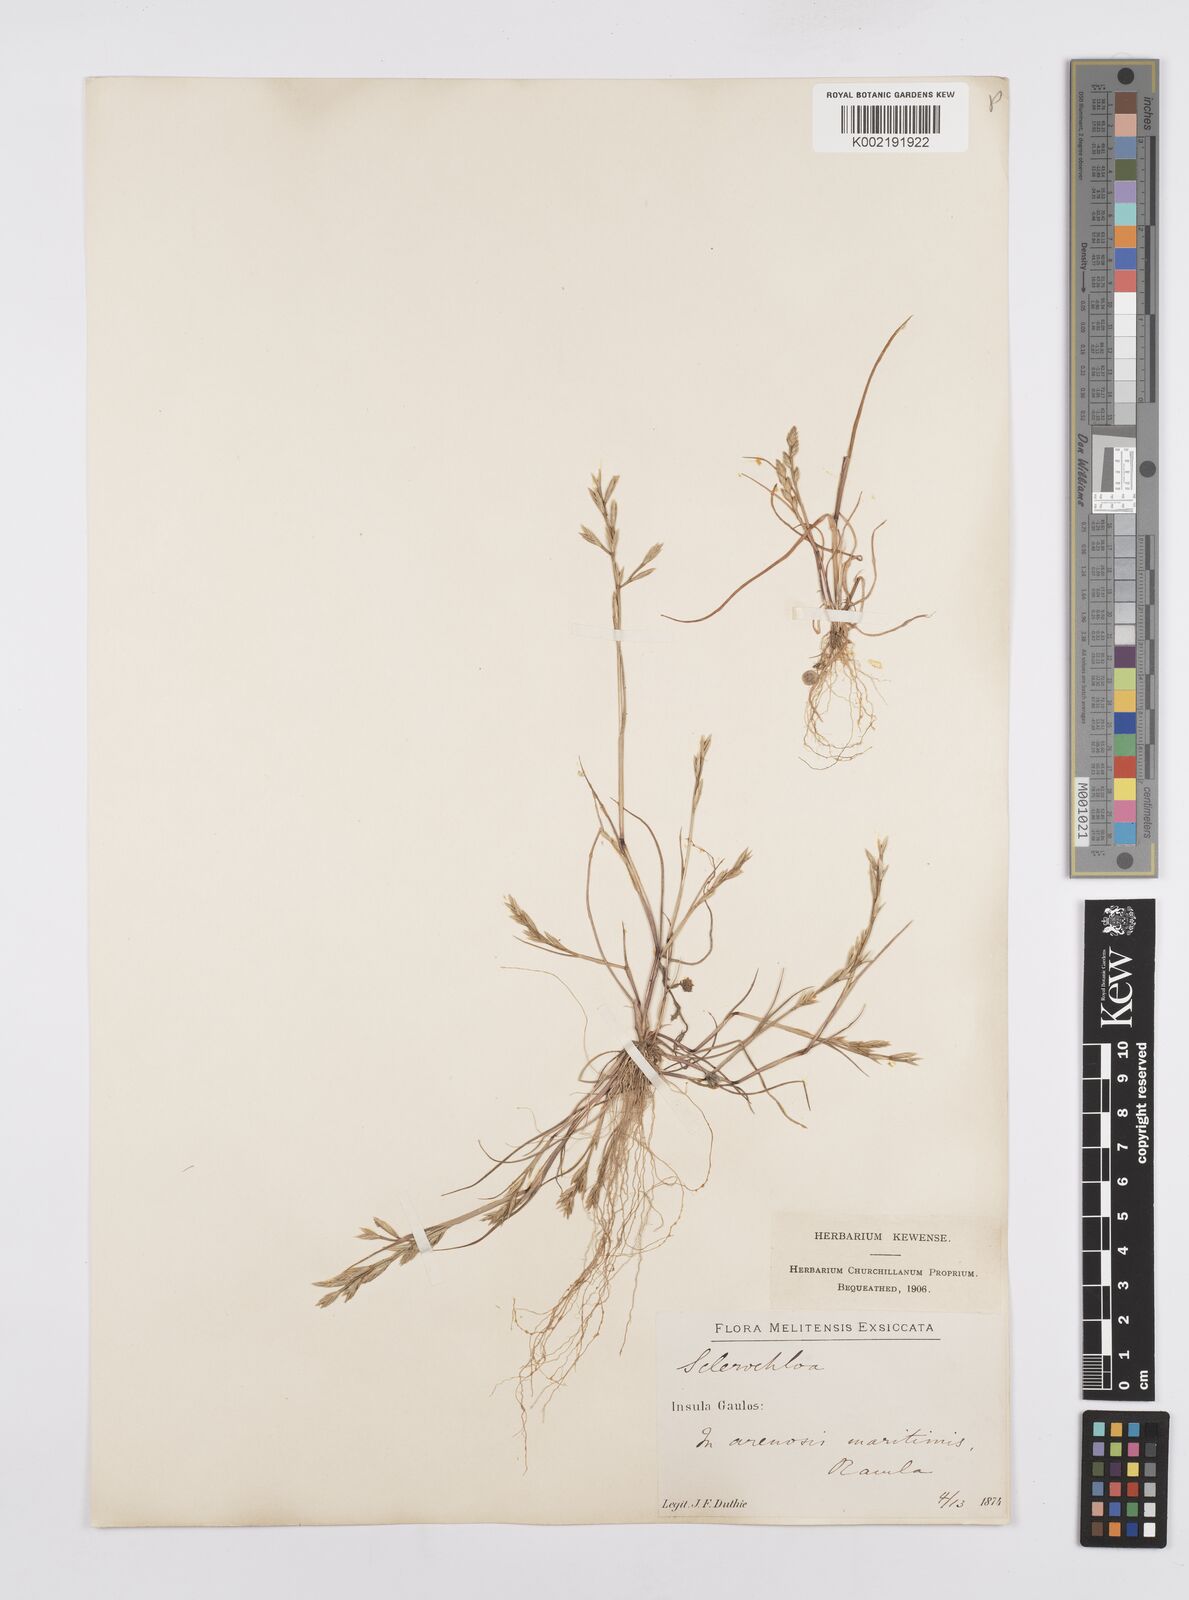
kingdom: Plantae
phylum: Tracheophyta
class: Liliopsida
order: Poales
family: Poaceae
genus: Cutandia
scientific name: Cutandia maritima
